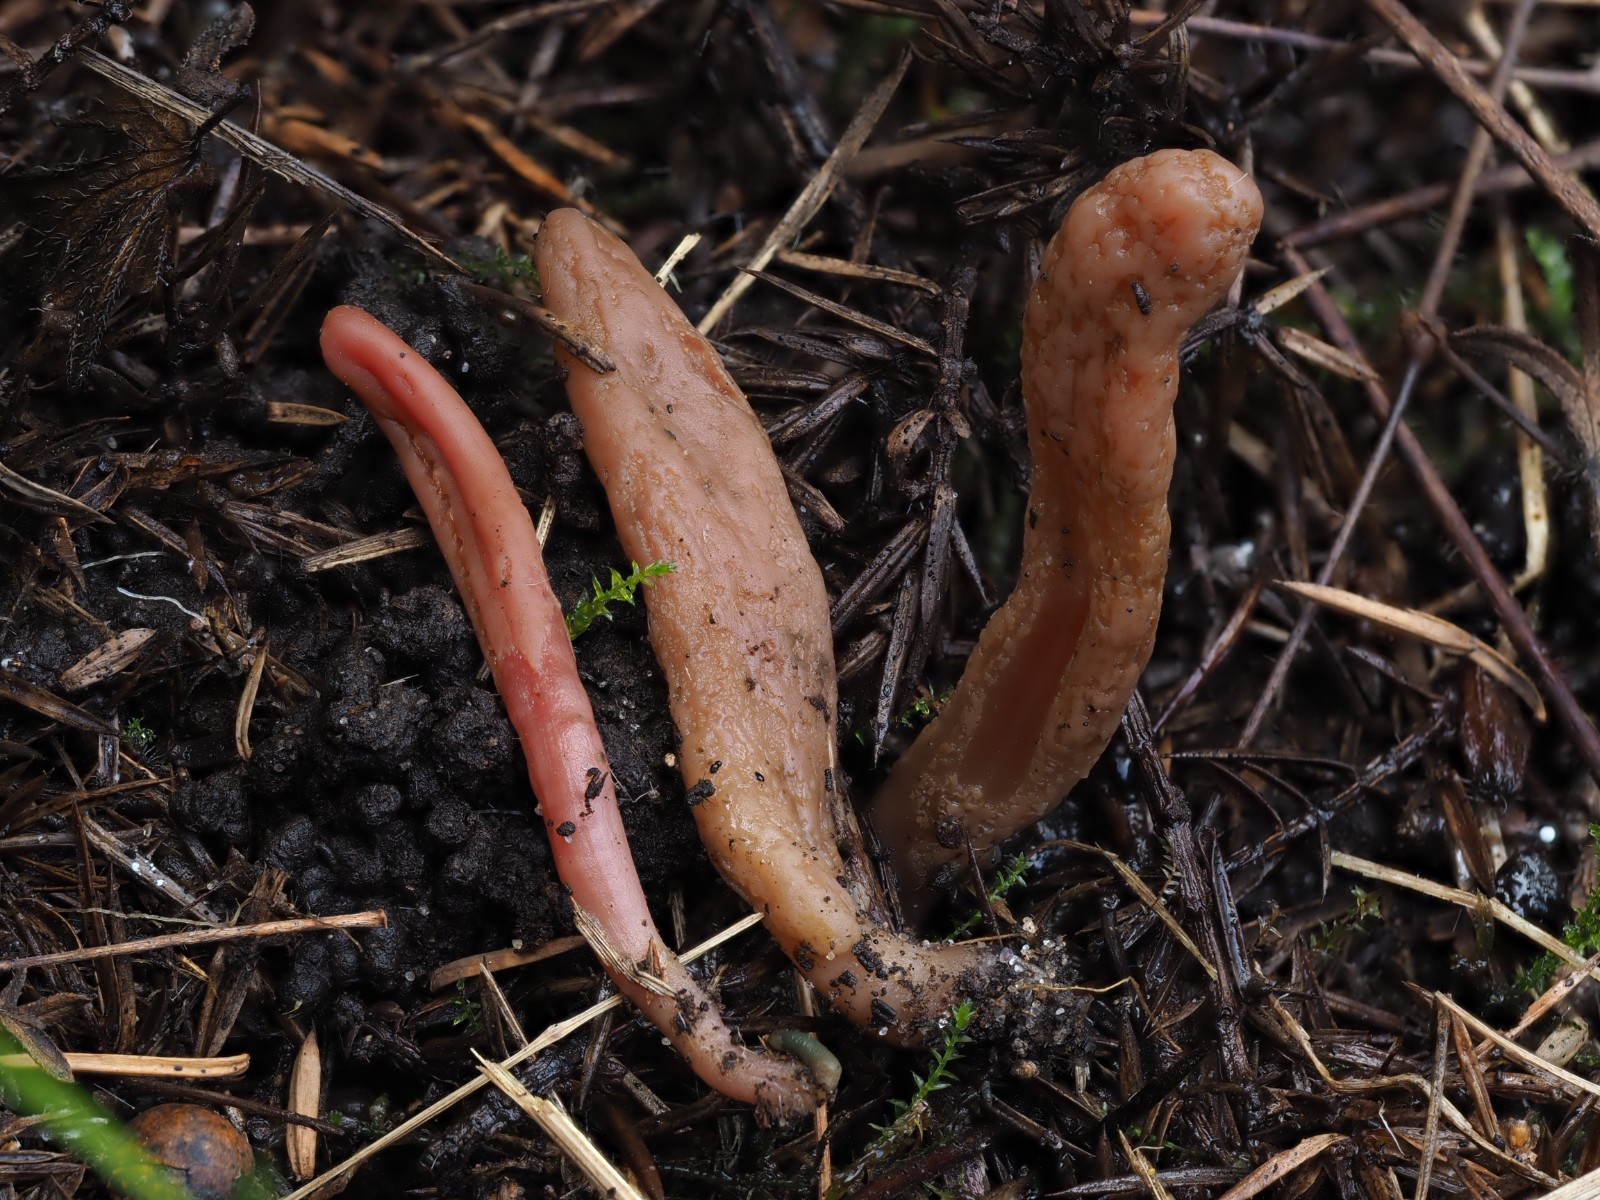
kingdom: Fungi
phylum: Ascomycota
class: Leotiomycetes
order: Leotiales
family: Leotiaceae
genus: Microglossum
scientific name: Microglossum olivaceum
